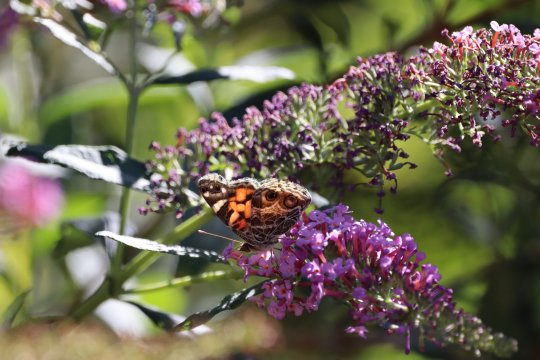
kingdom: Animalia
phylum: Arthropoda
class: Insecta
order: Lepidoptera
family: Nymphalidae
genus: Vanessa
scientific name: Vanessa virginiensis
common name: American Lady
